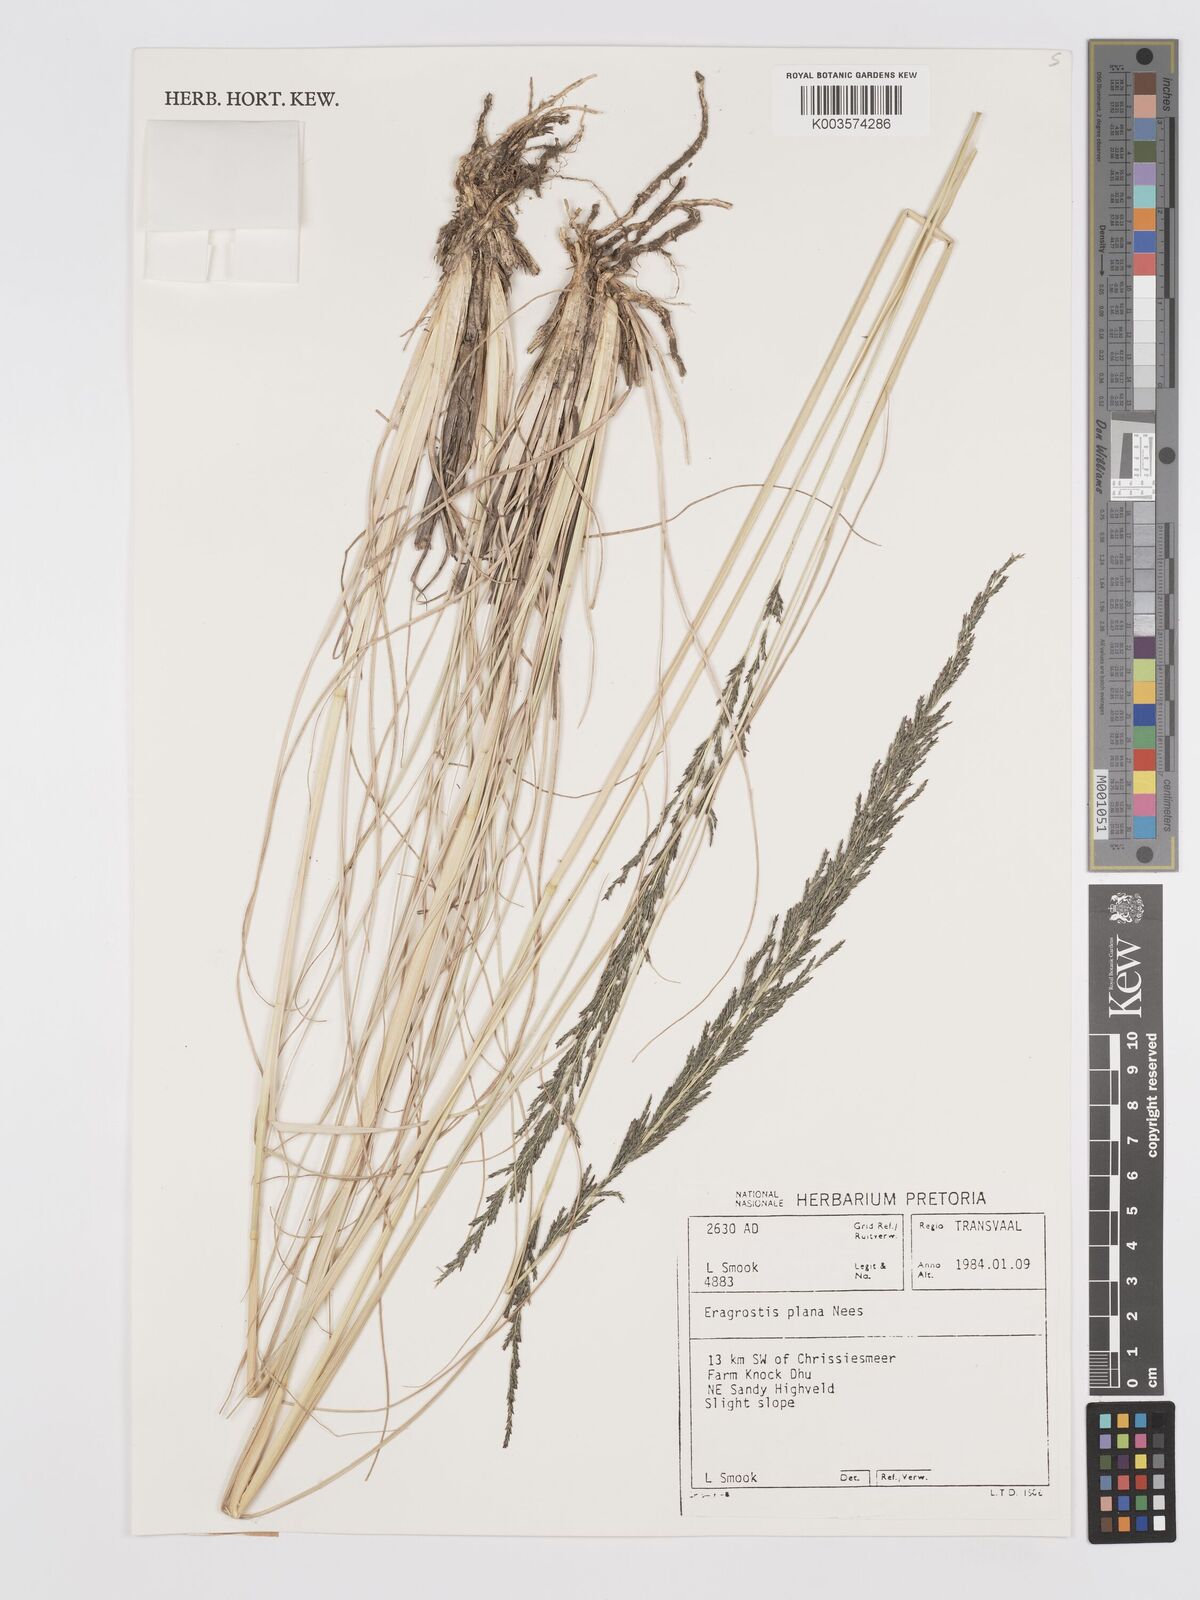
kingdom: Plantae
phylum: Tracheophyta
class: Liliopsida
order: Poales
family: Poaceae
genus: Eragrostis
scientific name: Eragrostis plana
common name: South african lovegrass
